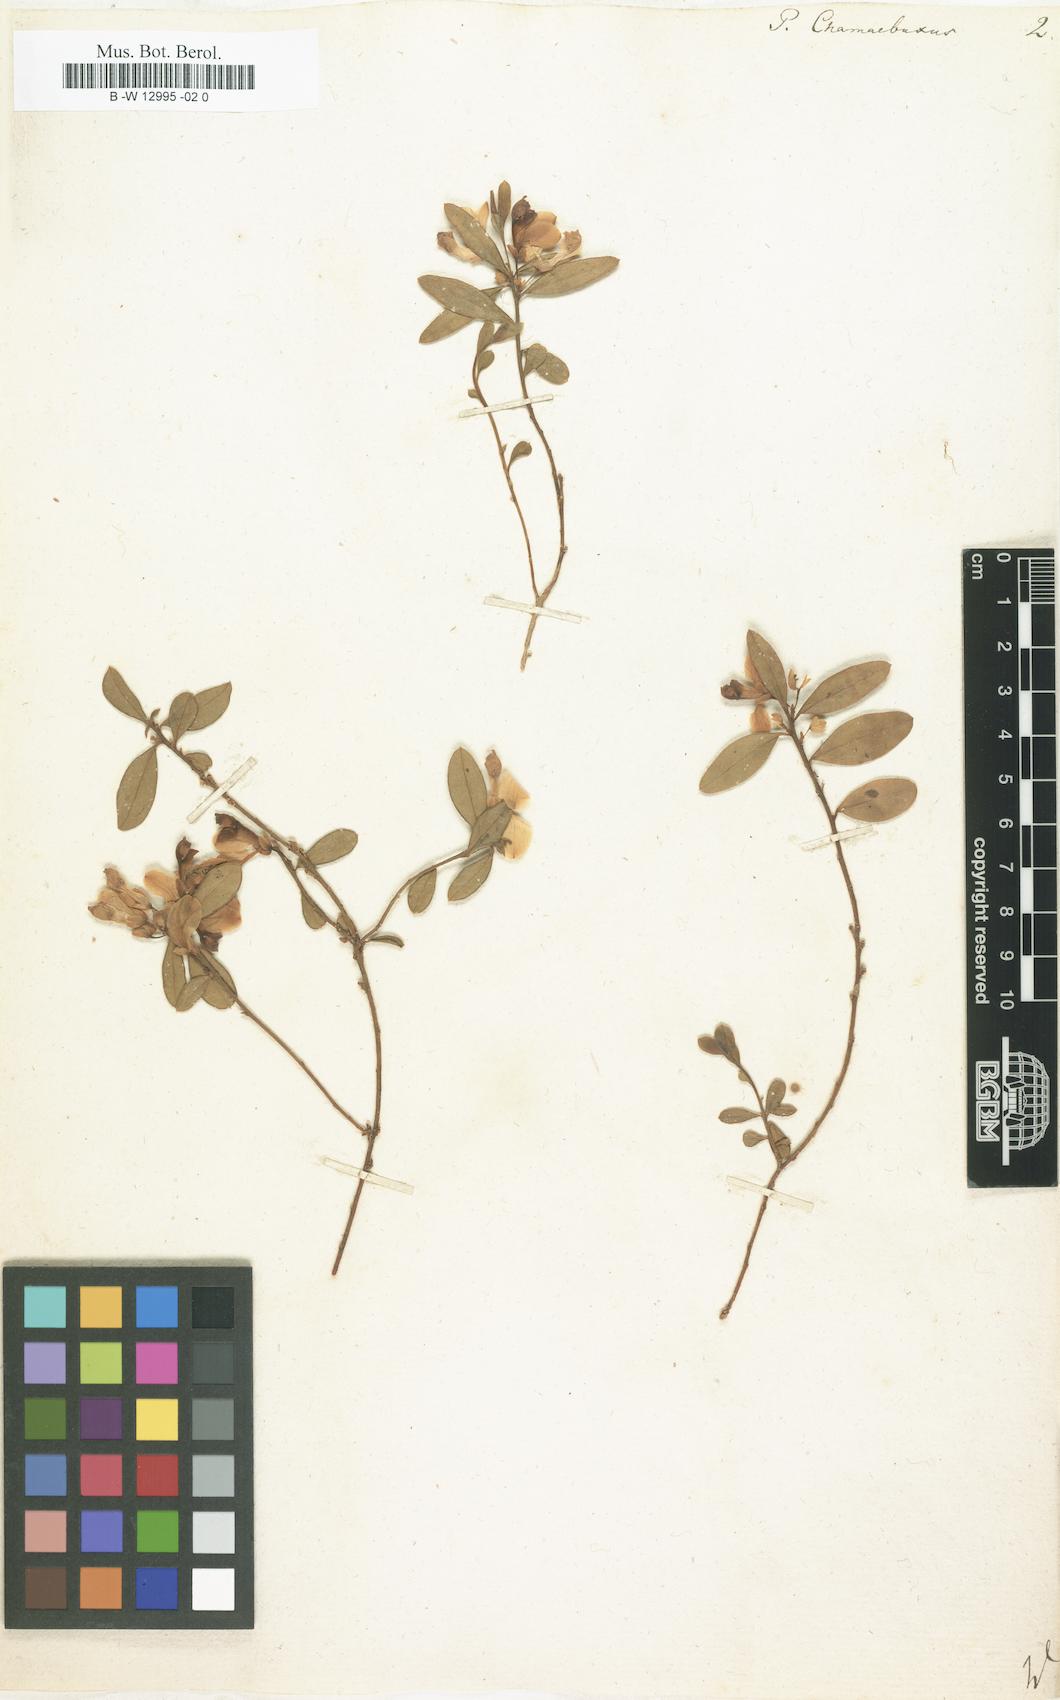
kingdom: Plantae
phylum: Tracheophyta
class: Magnoliopsida
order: Fabales
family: Polygalaceae
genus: Polygaloides
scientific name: Polygaloides chamaebuxus
